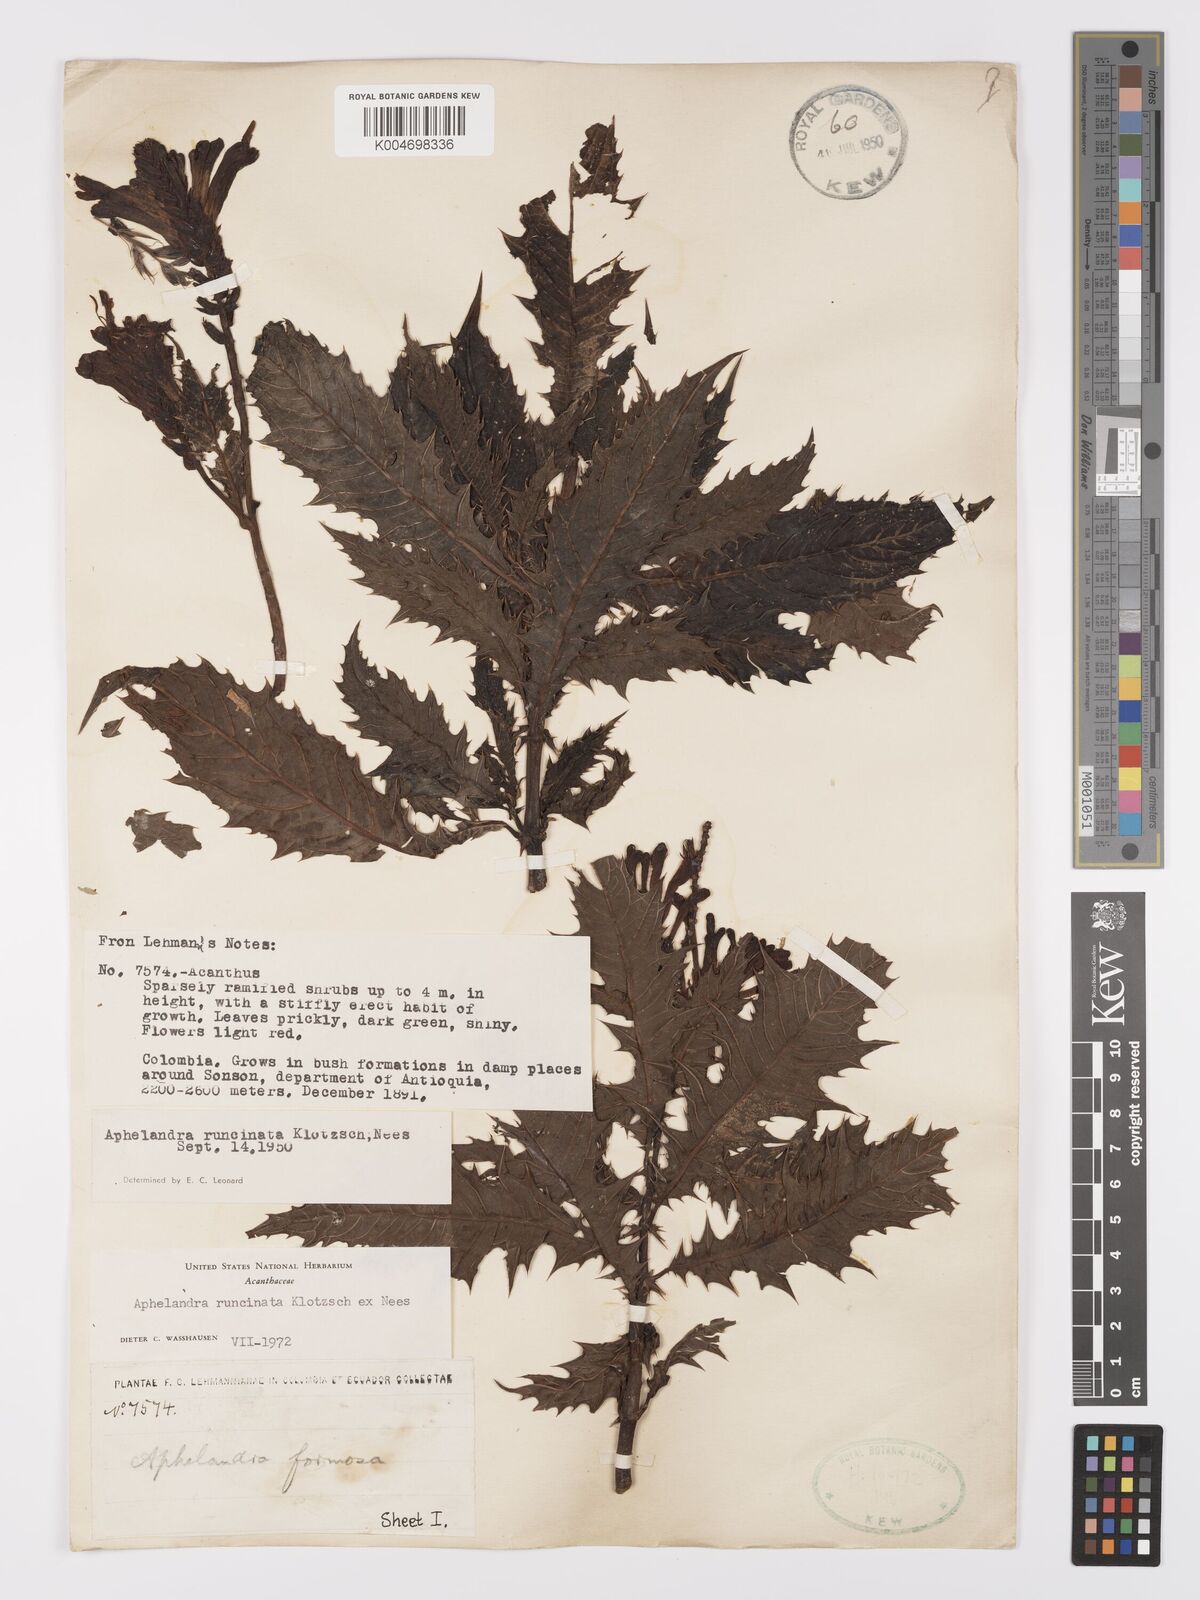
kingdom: Plantae
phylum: Tracheophyta
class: Magnoliopsida
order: Lamiales
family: Acanthaceae
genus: Aphelandra
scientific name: Aphelandra runcinata
